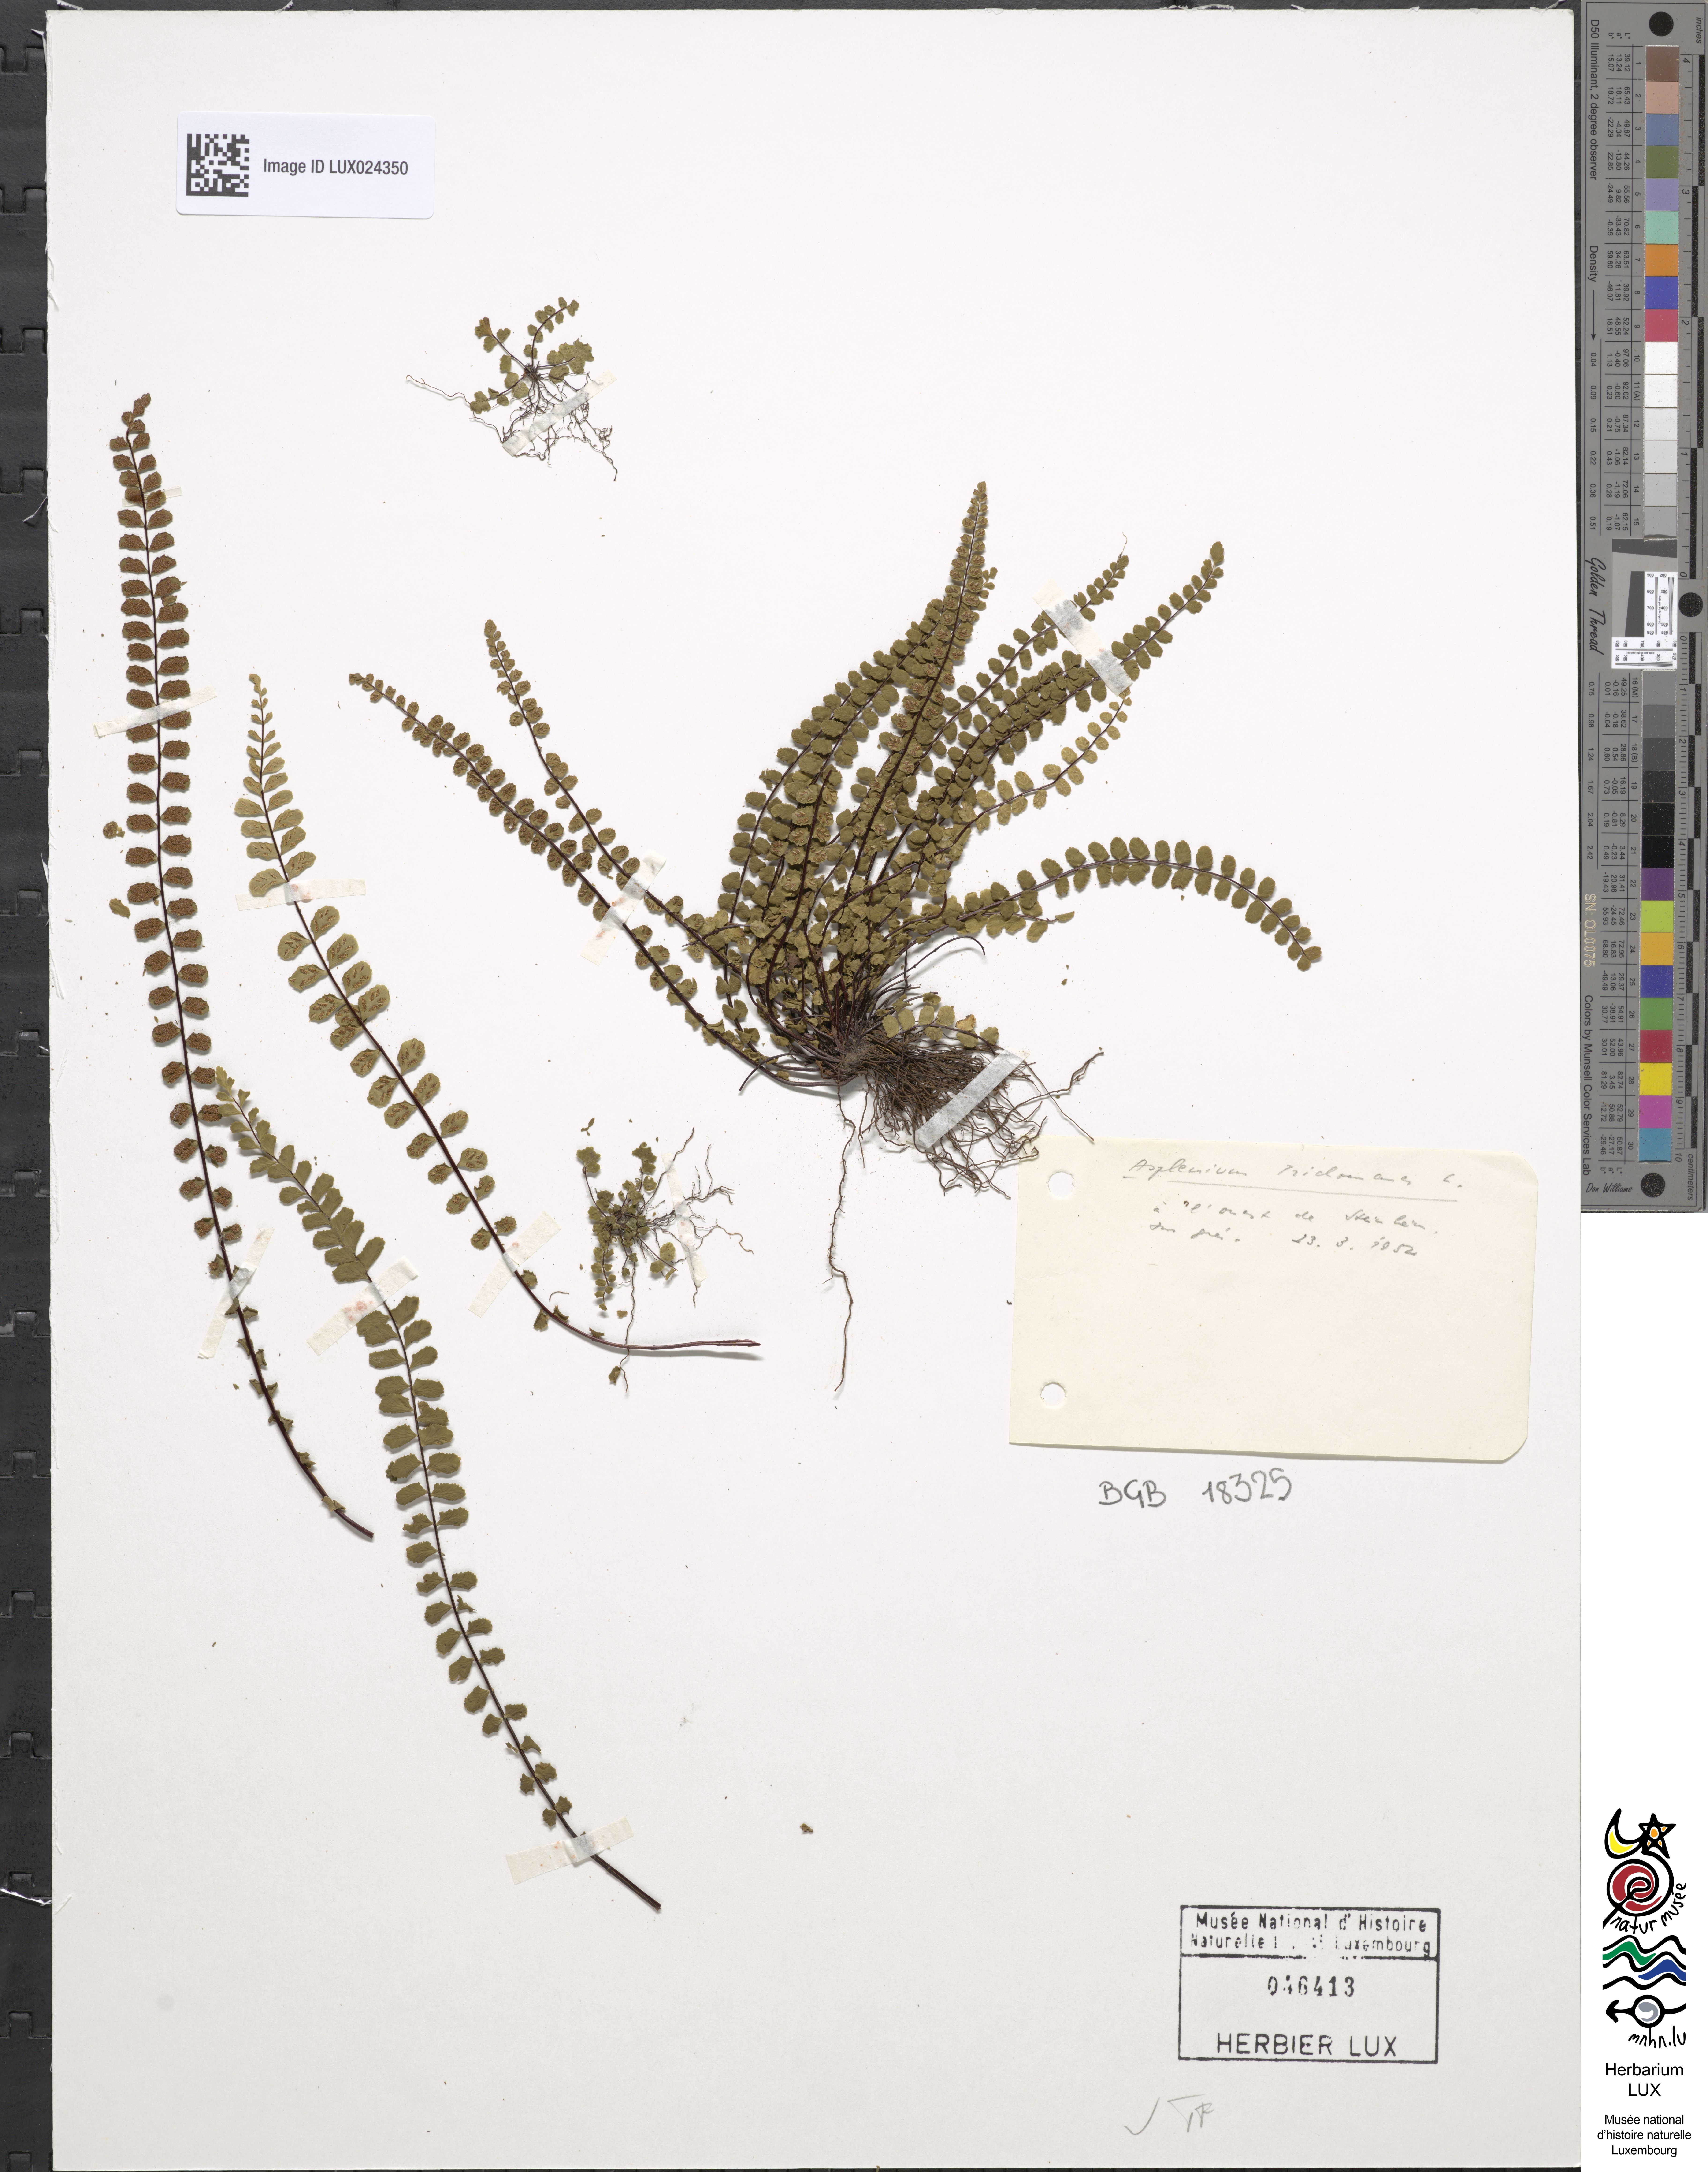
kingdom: Plantae
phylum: Tracheophyta
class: Polypodiopsida
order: Polypodiales
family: Aspleniaceae
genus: Asplenium
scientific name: Asplenium trichomanes
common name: Maidenhair spleenwort
